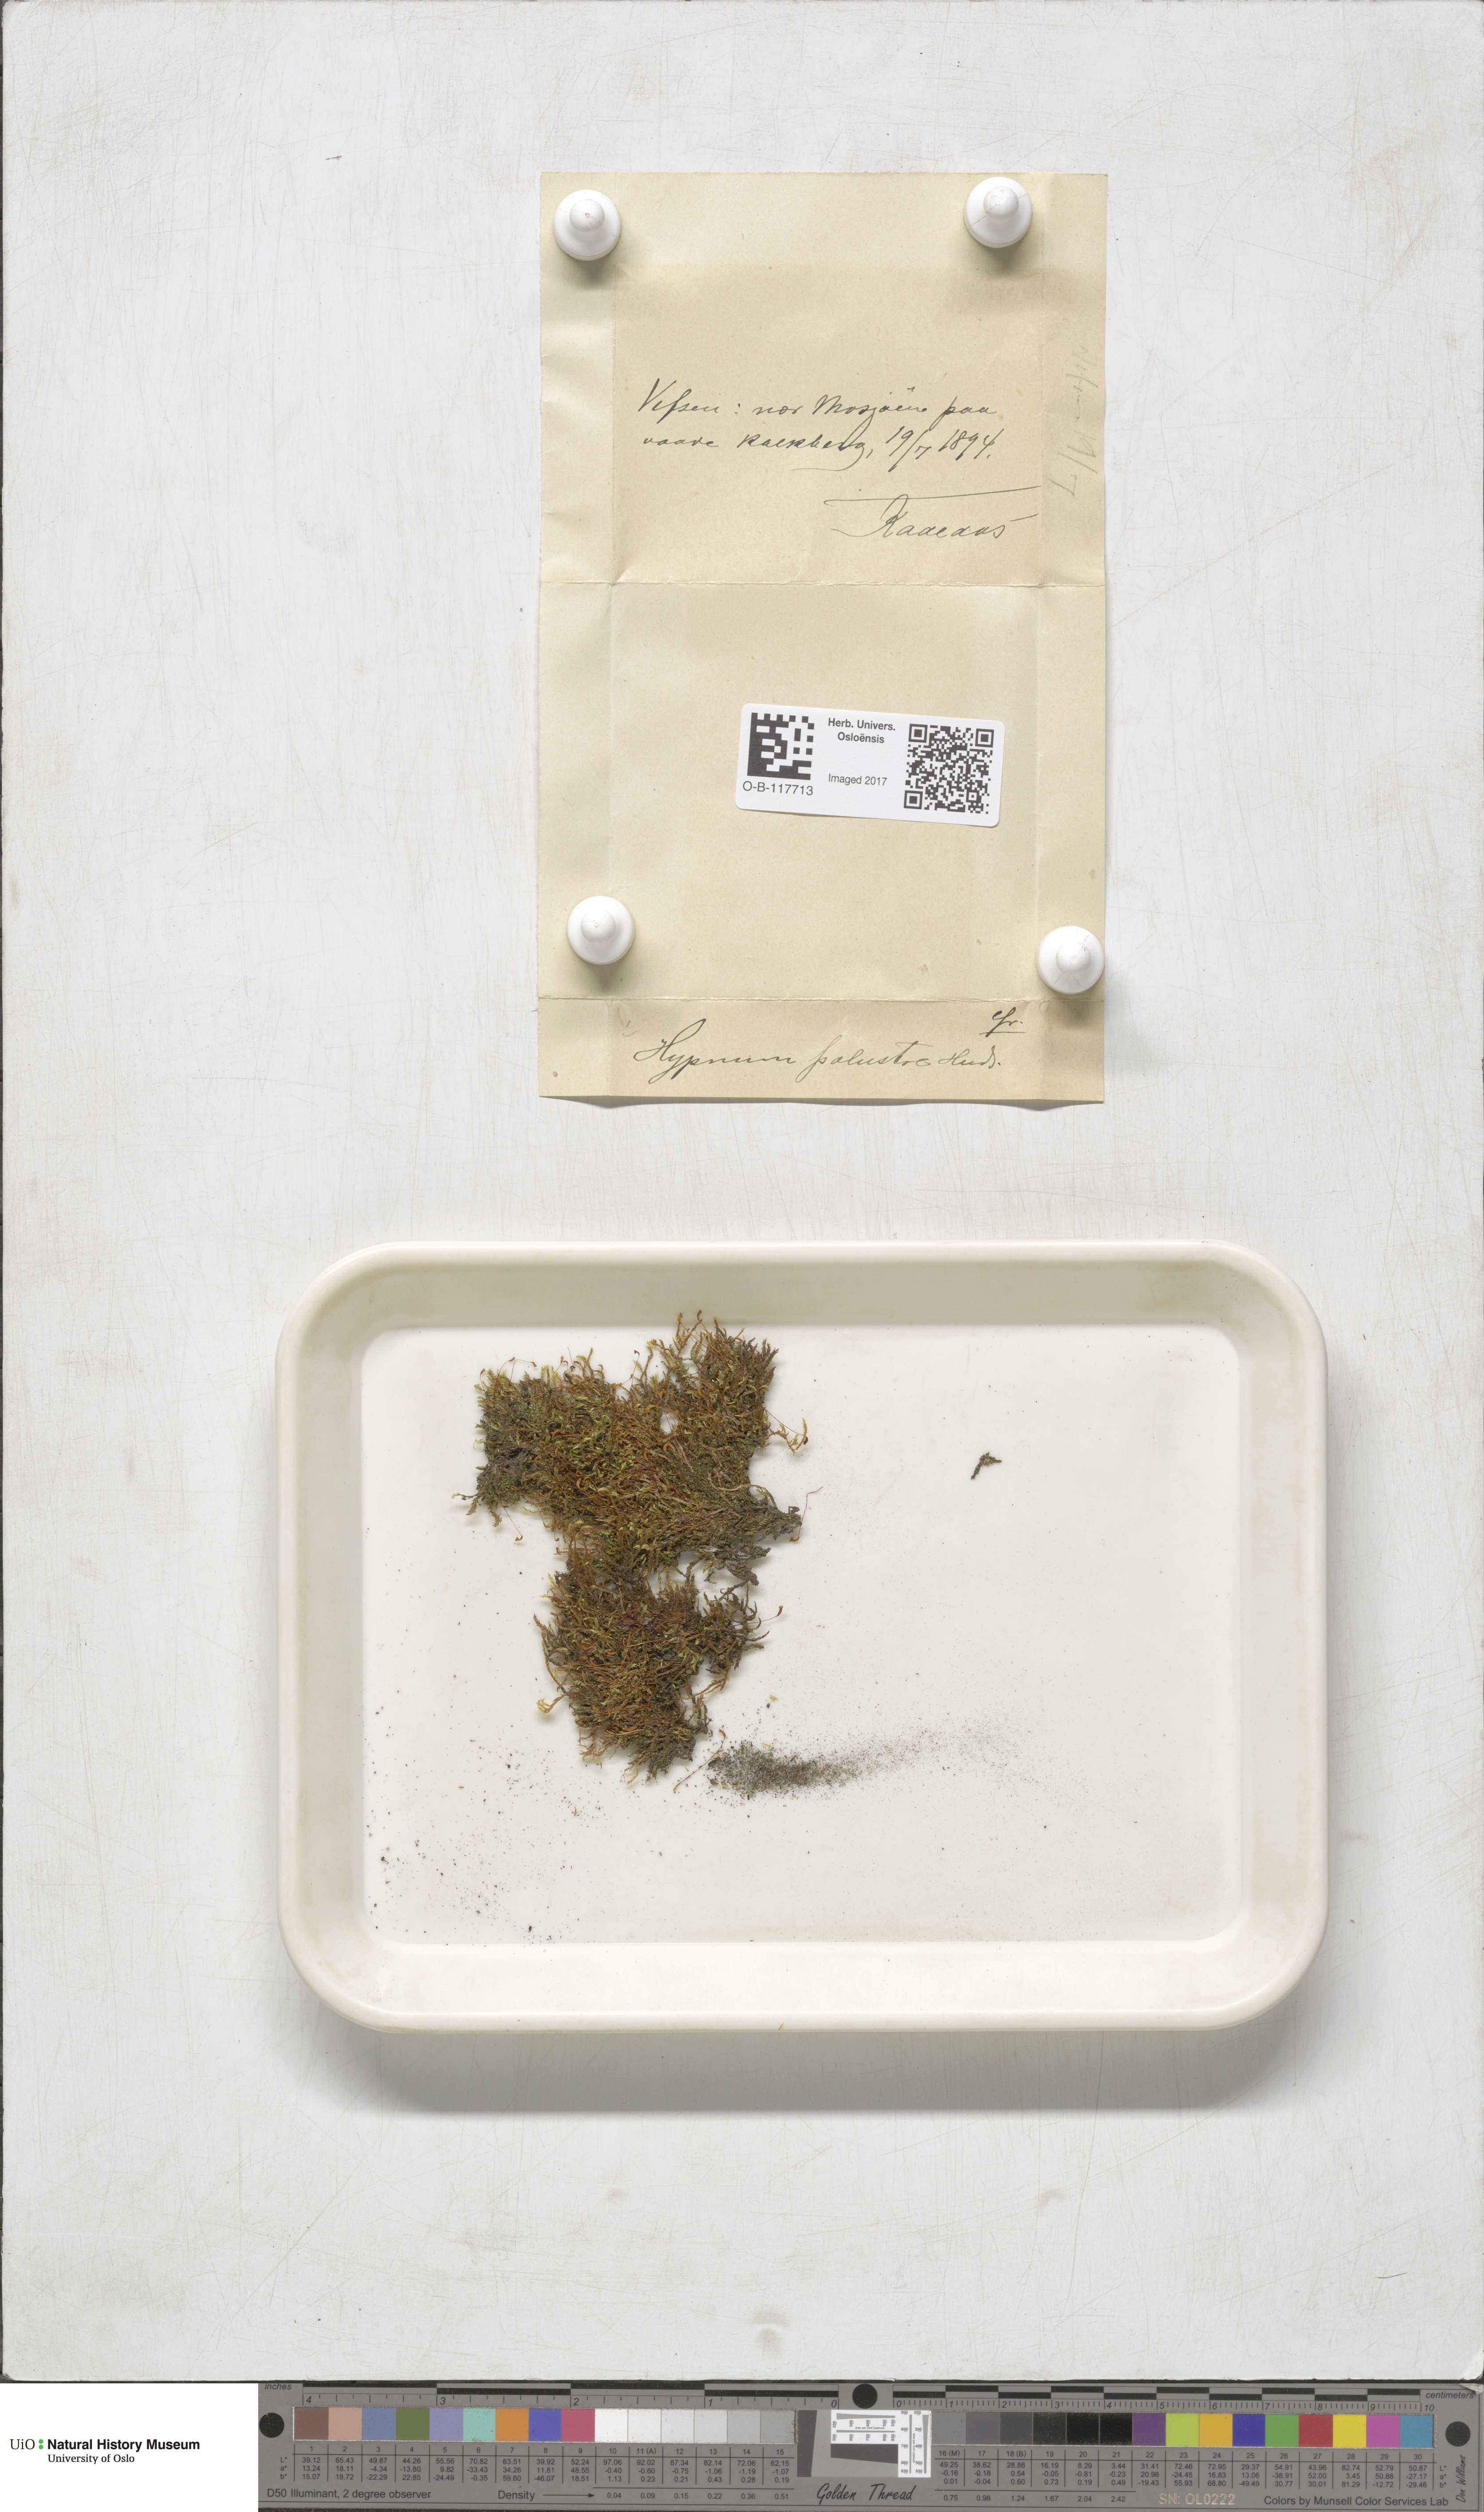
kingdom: Plantae
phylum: Bryophyta
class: Bryopsida
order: Hypnales
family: Amblystegiaceae
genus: Hygrohypnum
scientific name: Hygrohypnum luridum
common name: Drab brook moss
